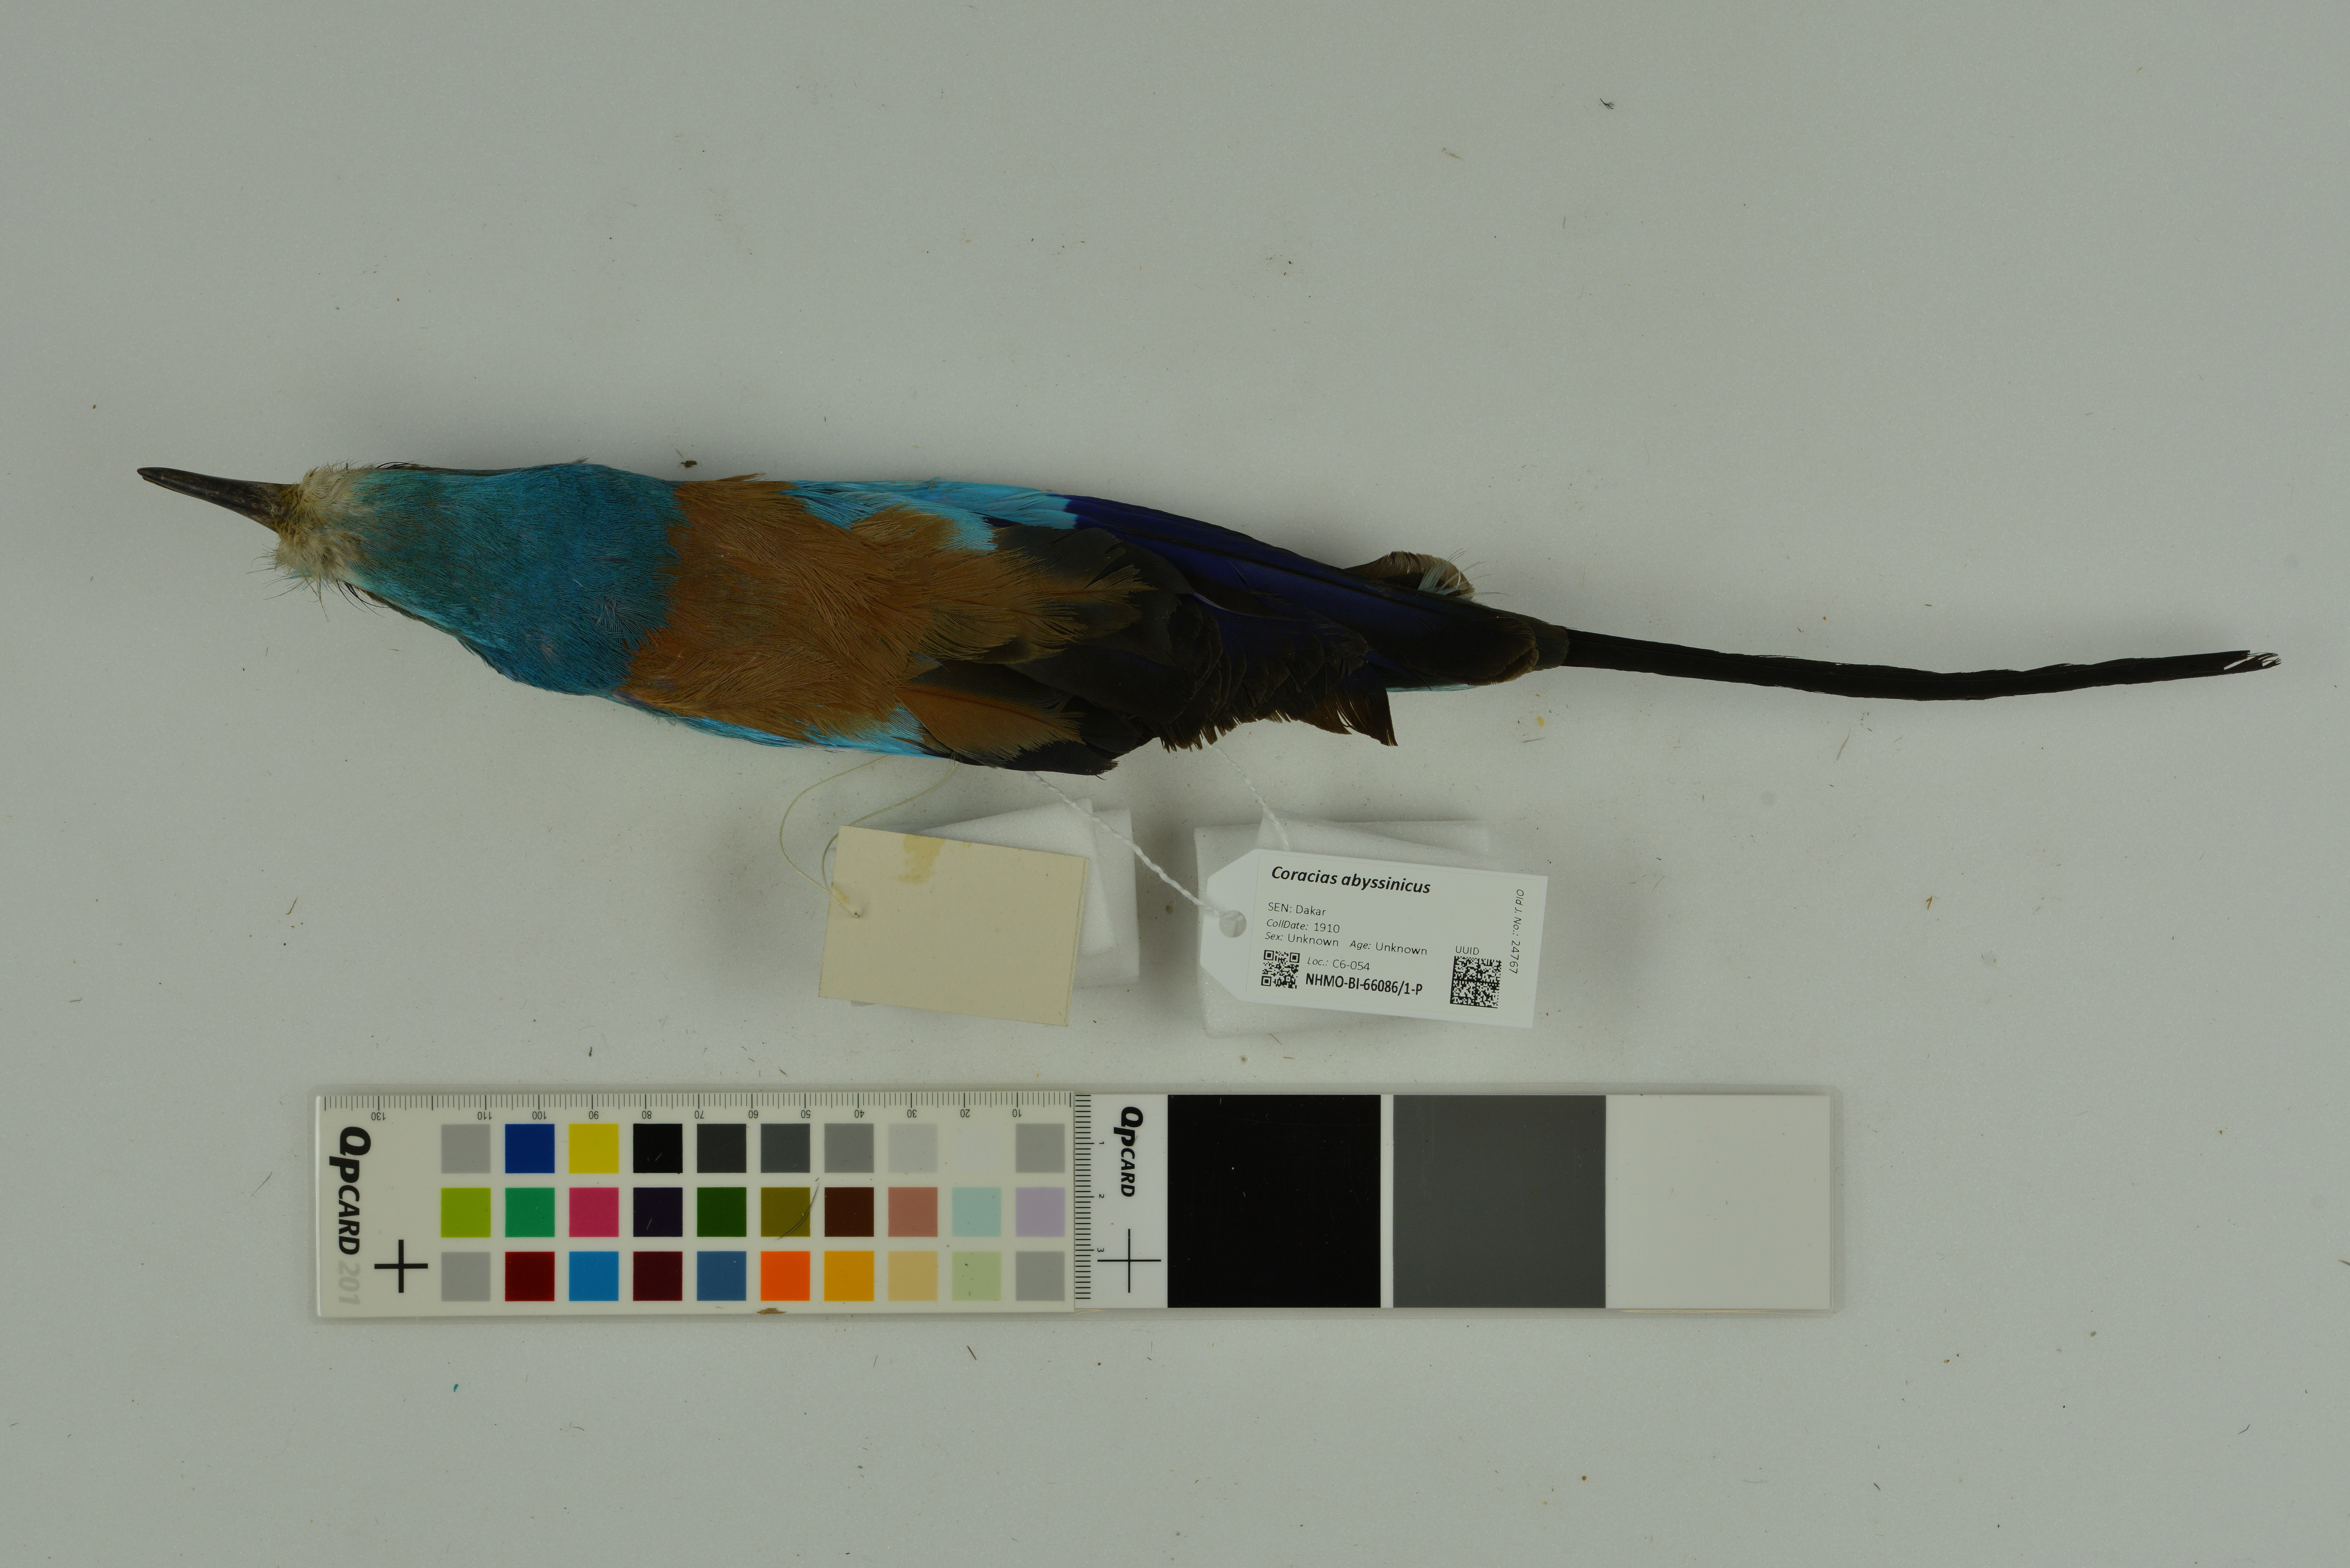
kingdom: Animalia
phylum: Chordata
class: Aves
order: Coraciiformes
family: Coraciidae
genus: Coracias
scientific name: Coracias abyssinicus
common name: Abyssinian roller
